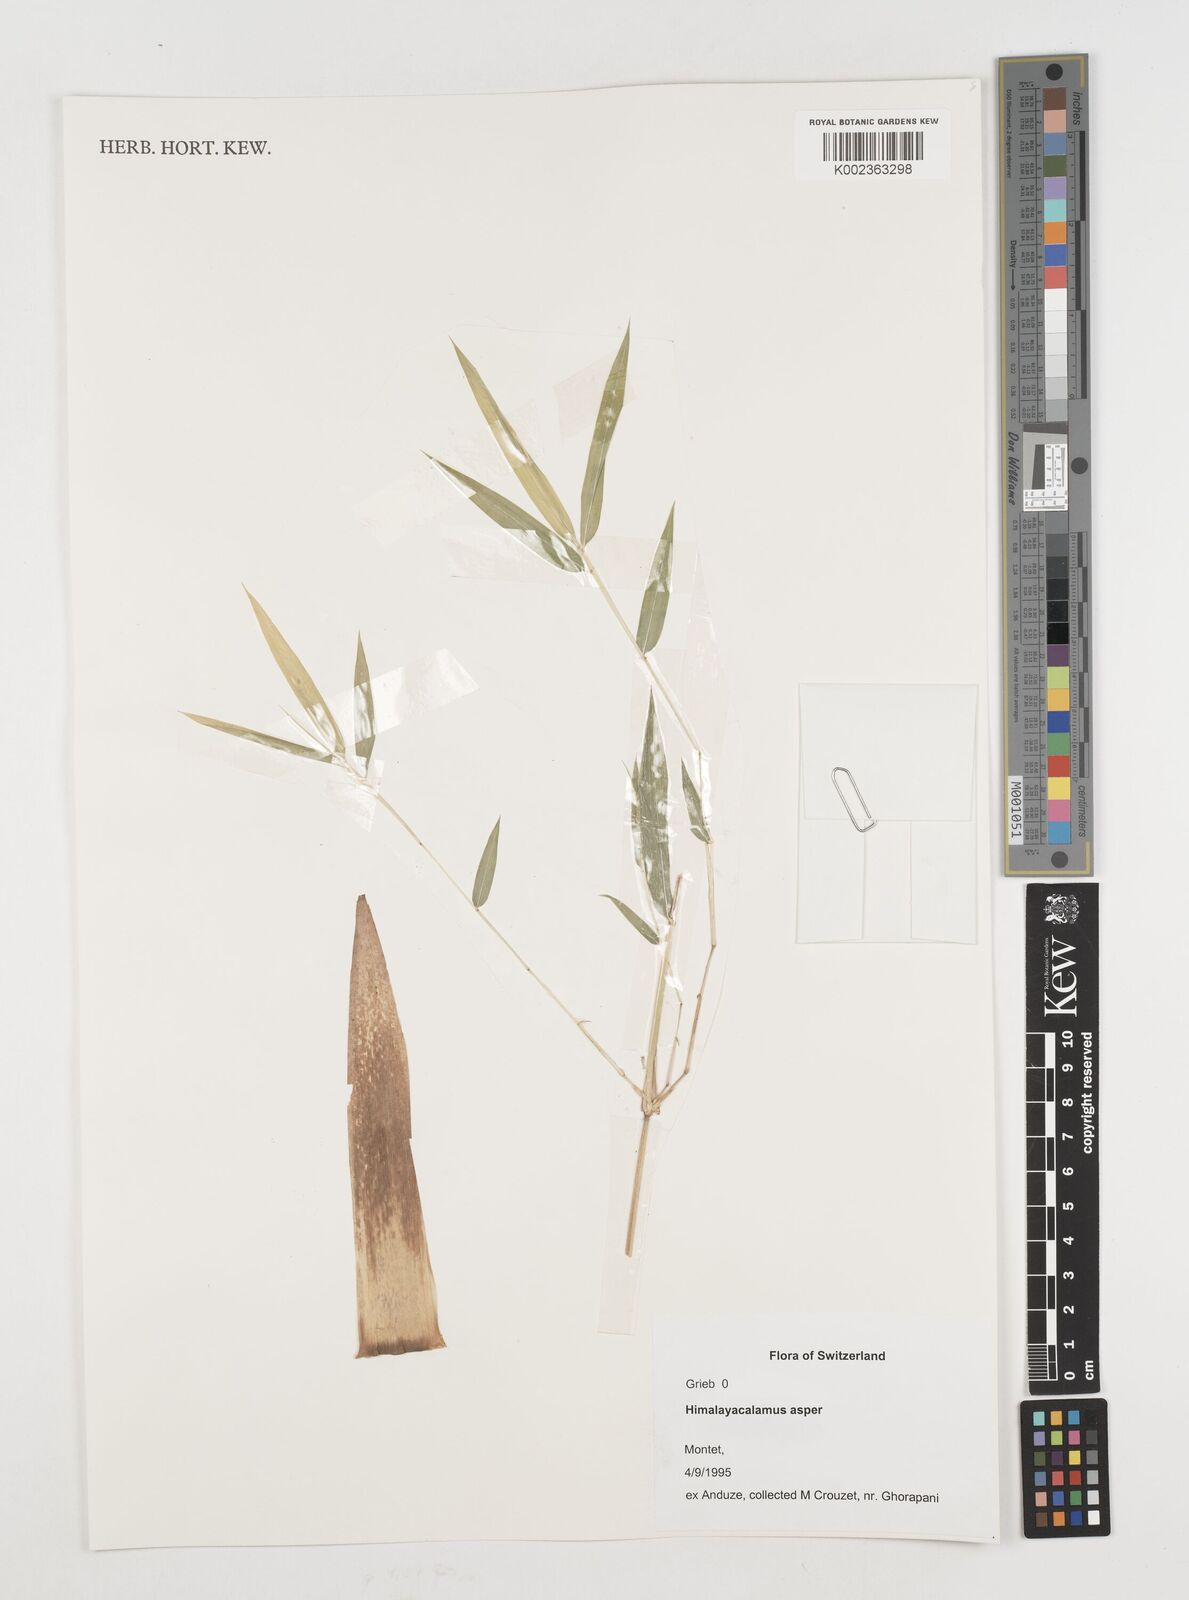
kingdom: Plantae
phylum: Tracheophyta
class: Liliopsida
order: Poales
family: Poaceae
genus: Himalayacalamus
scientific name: Himalayacalamus asper
